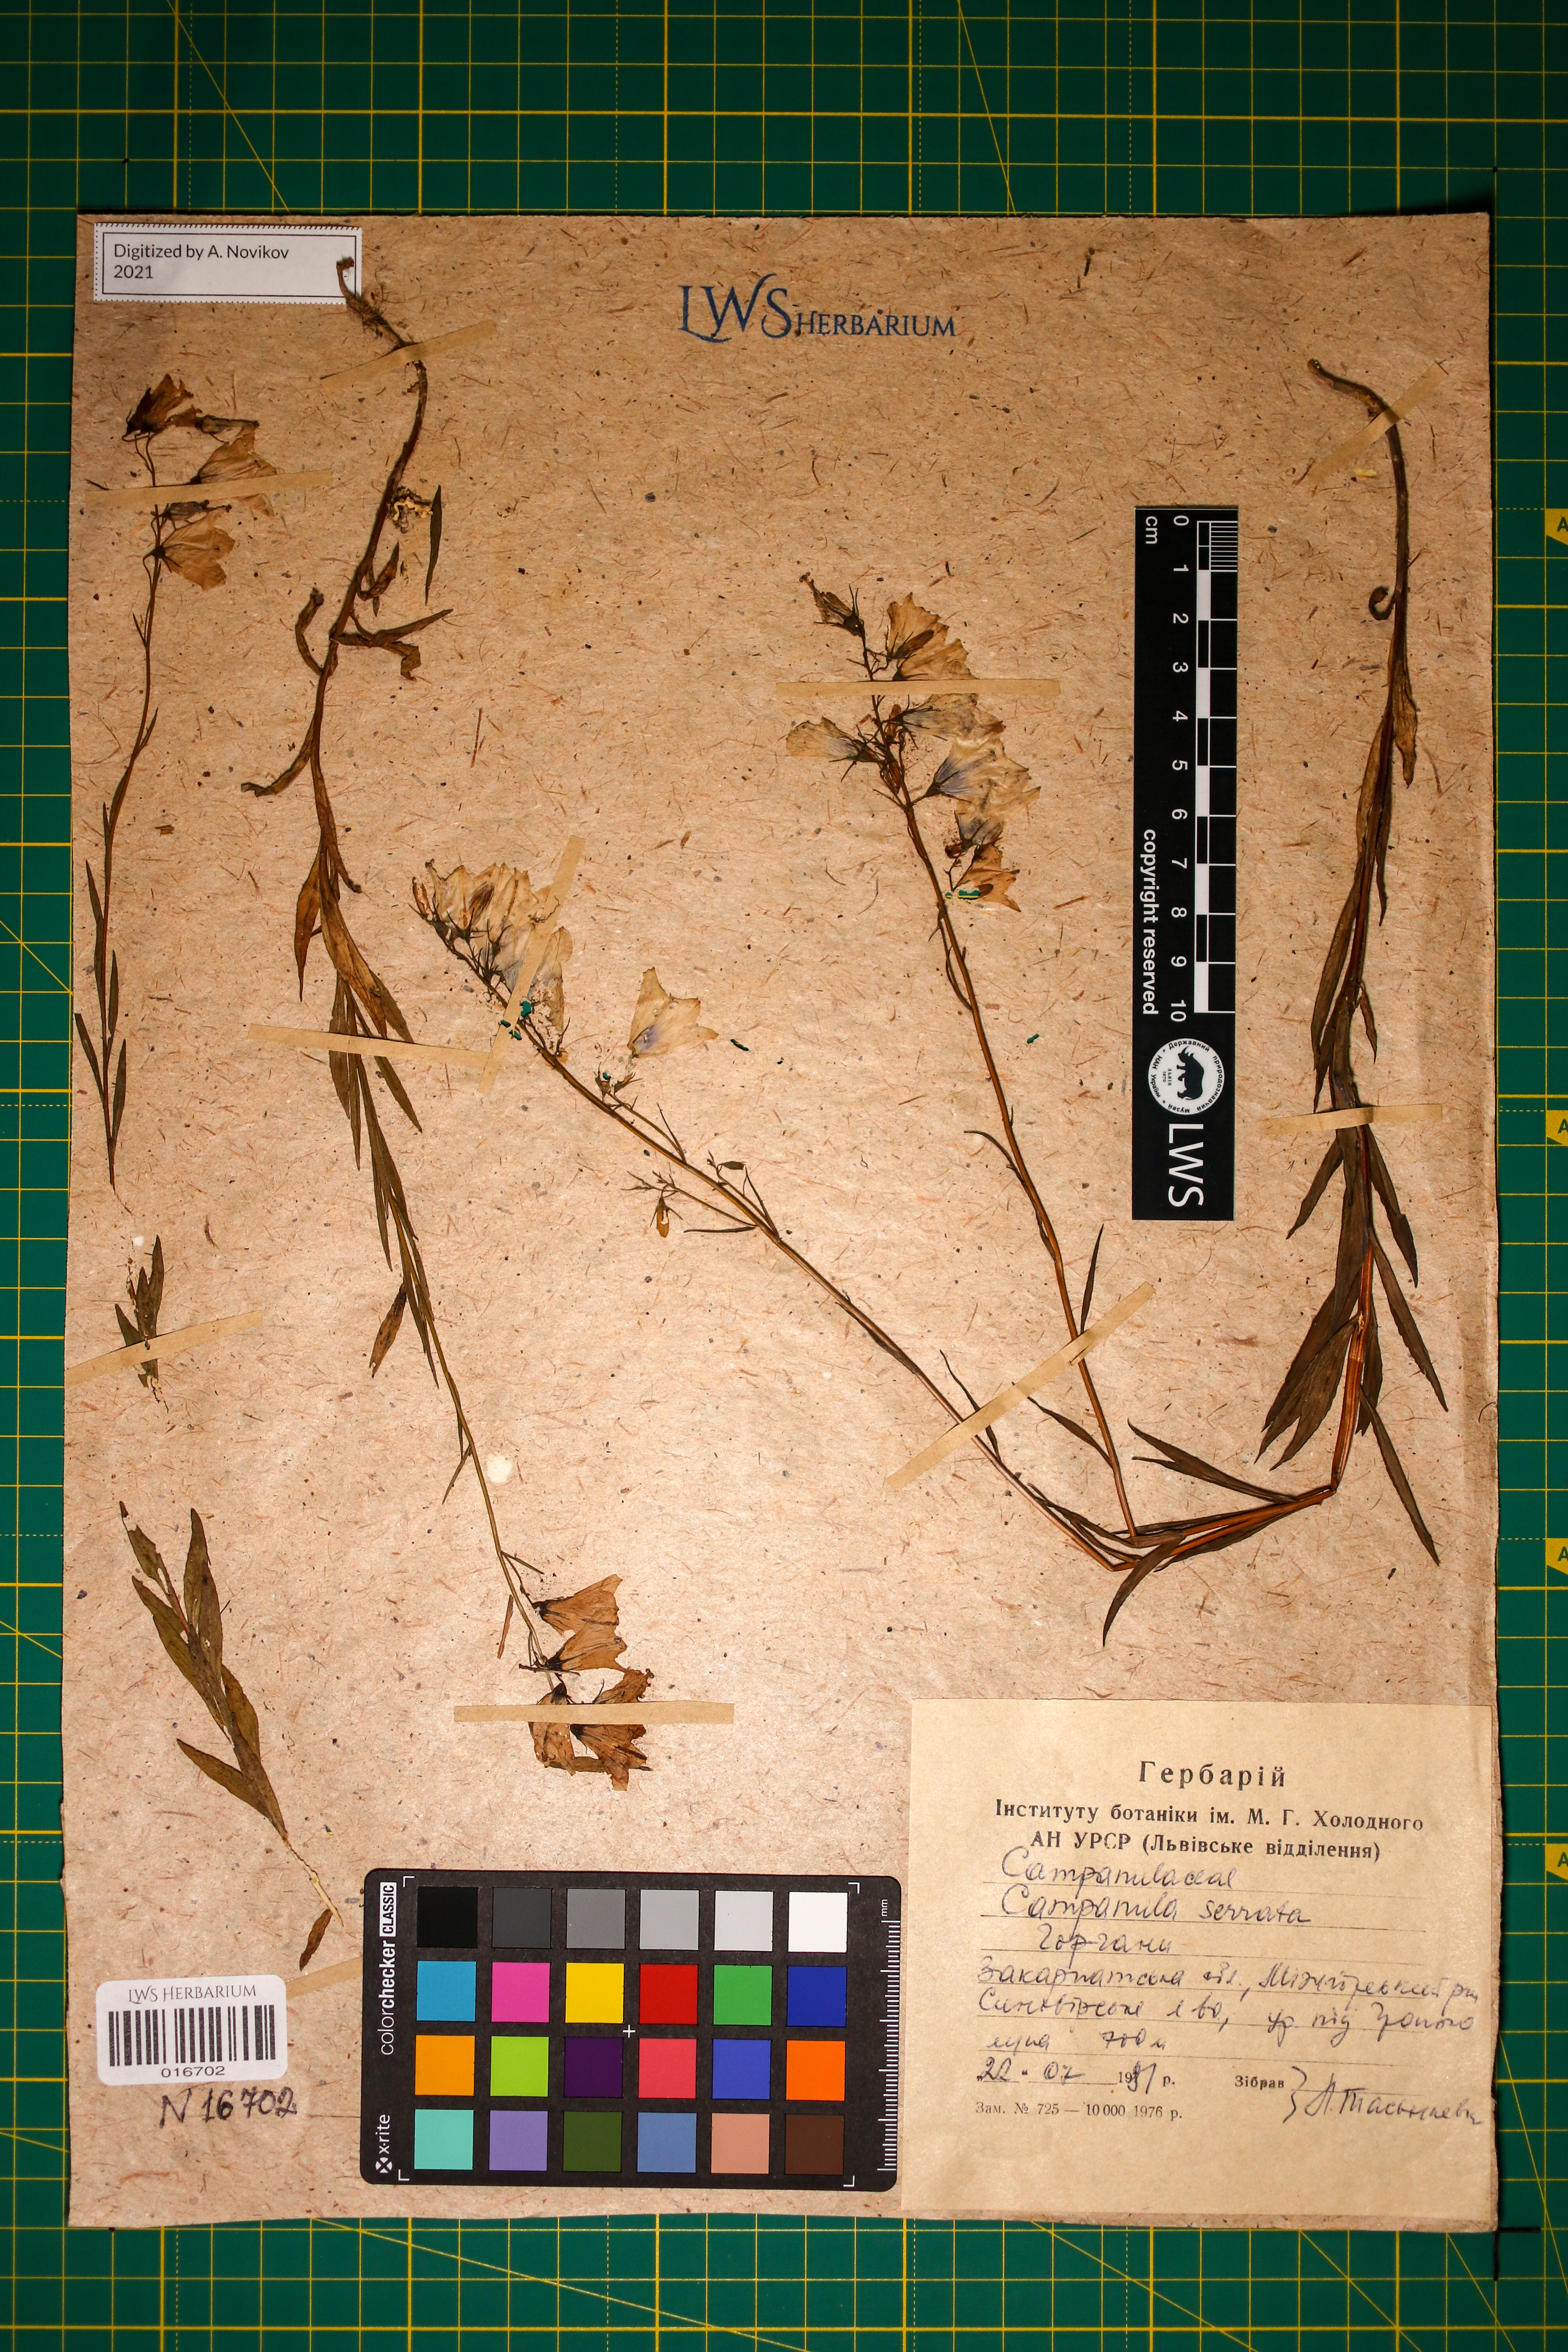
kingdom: Plantae
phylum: Tracheophyta
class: Magnoliopsida
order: Asterales
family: Campanulaceae
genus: Campanula
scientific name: Campanula serrata
